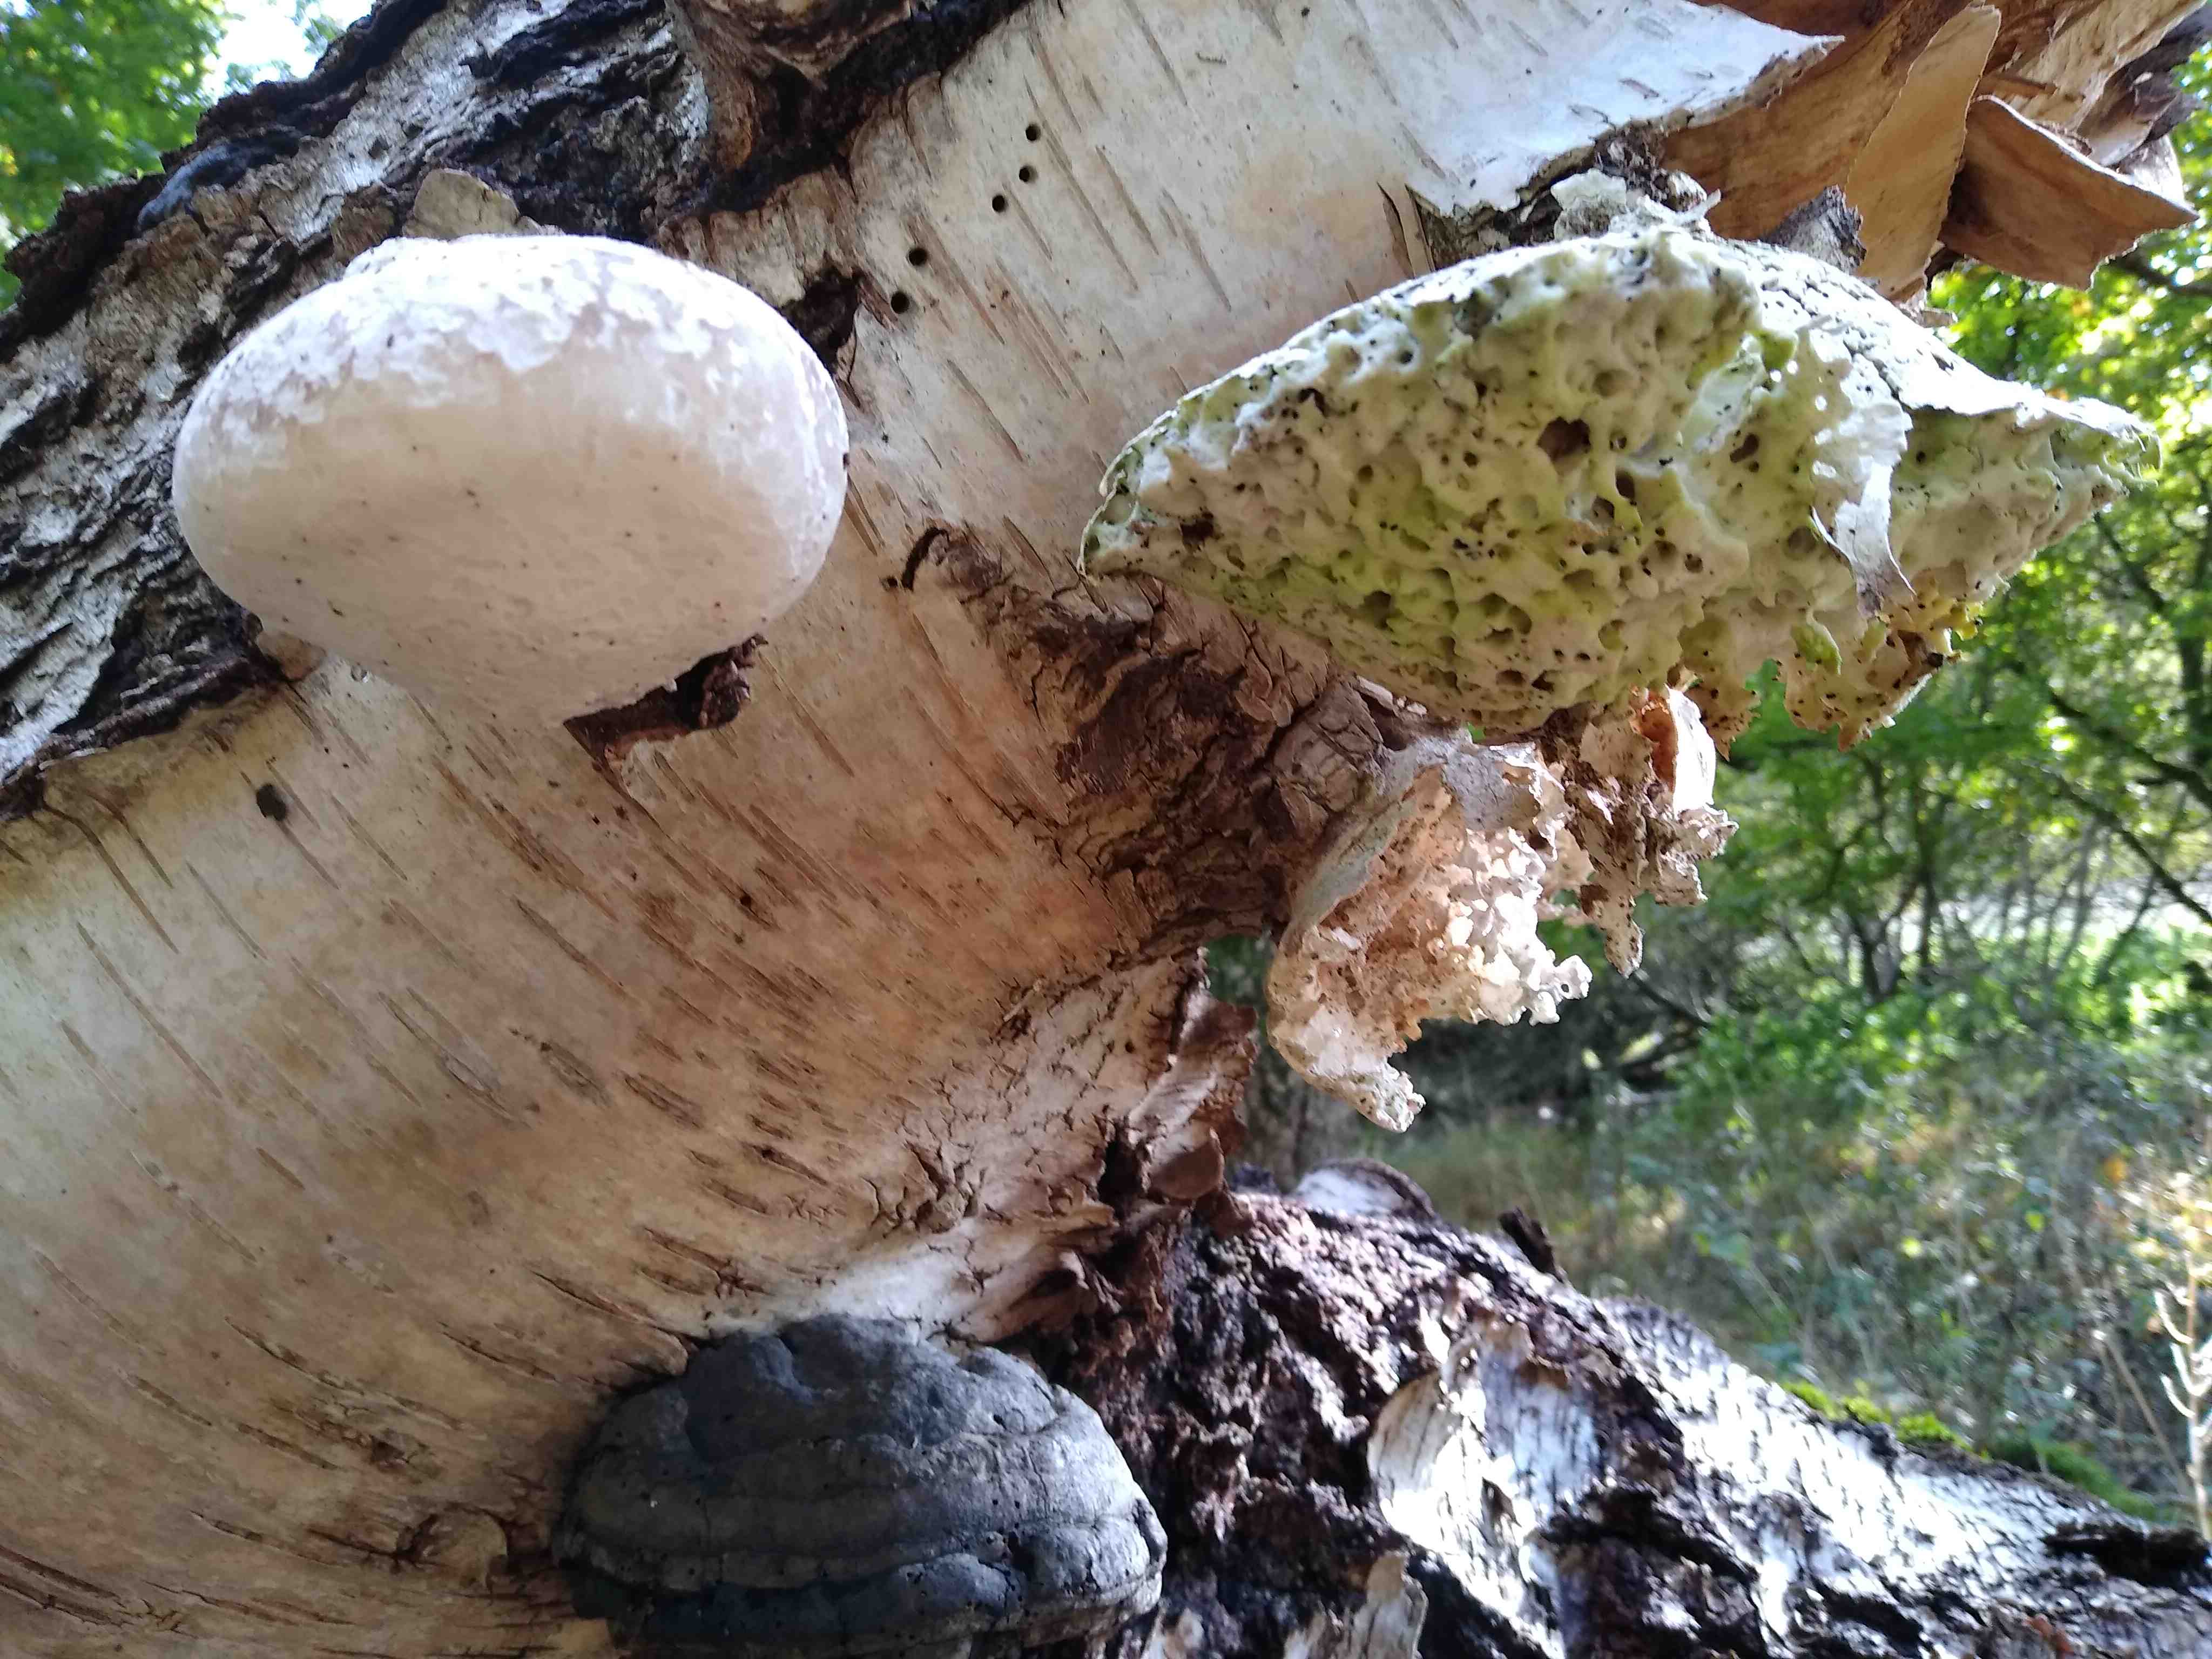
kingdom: Fungi
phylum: Basidiomycota
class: Agaricomycetes
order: Polyporales
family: Fomitopsidaceae
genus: Fomitopsis
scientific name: Fomitopsis betulina
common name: birkeporesvamp
